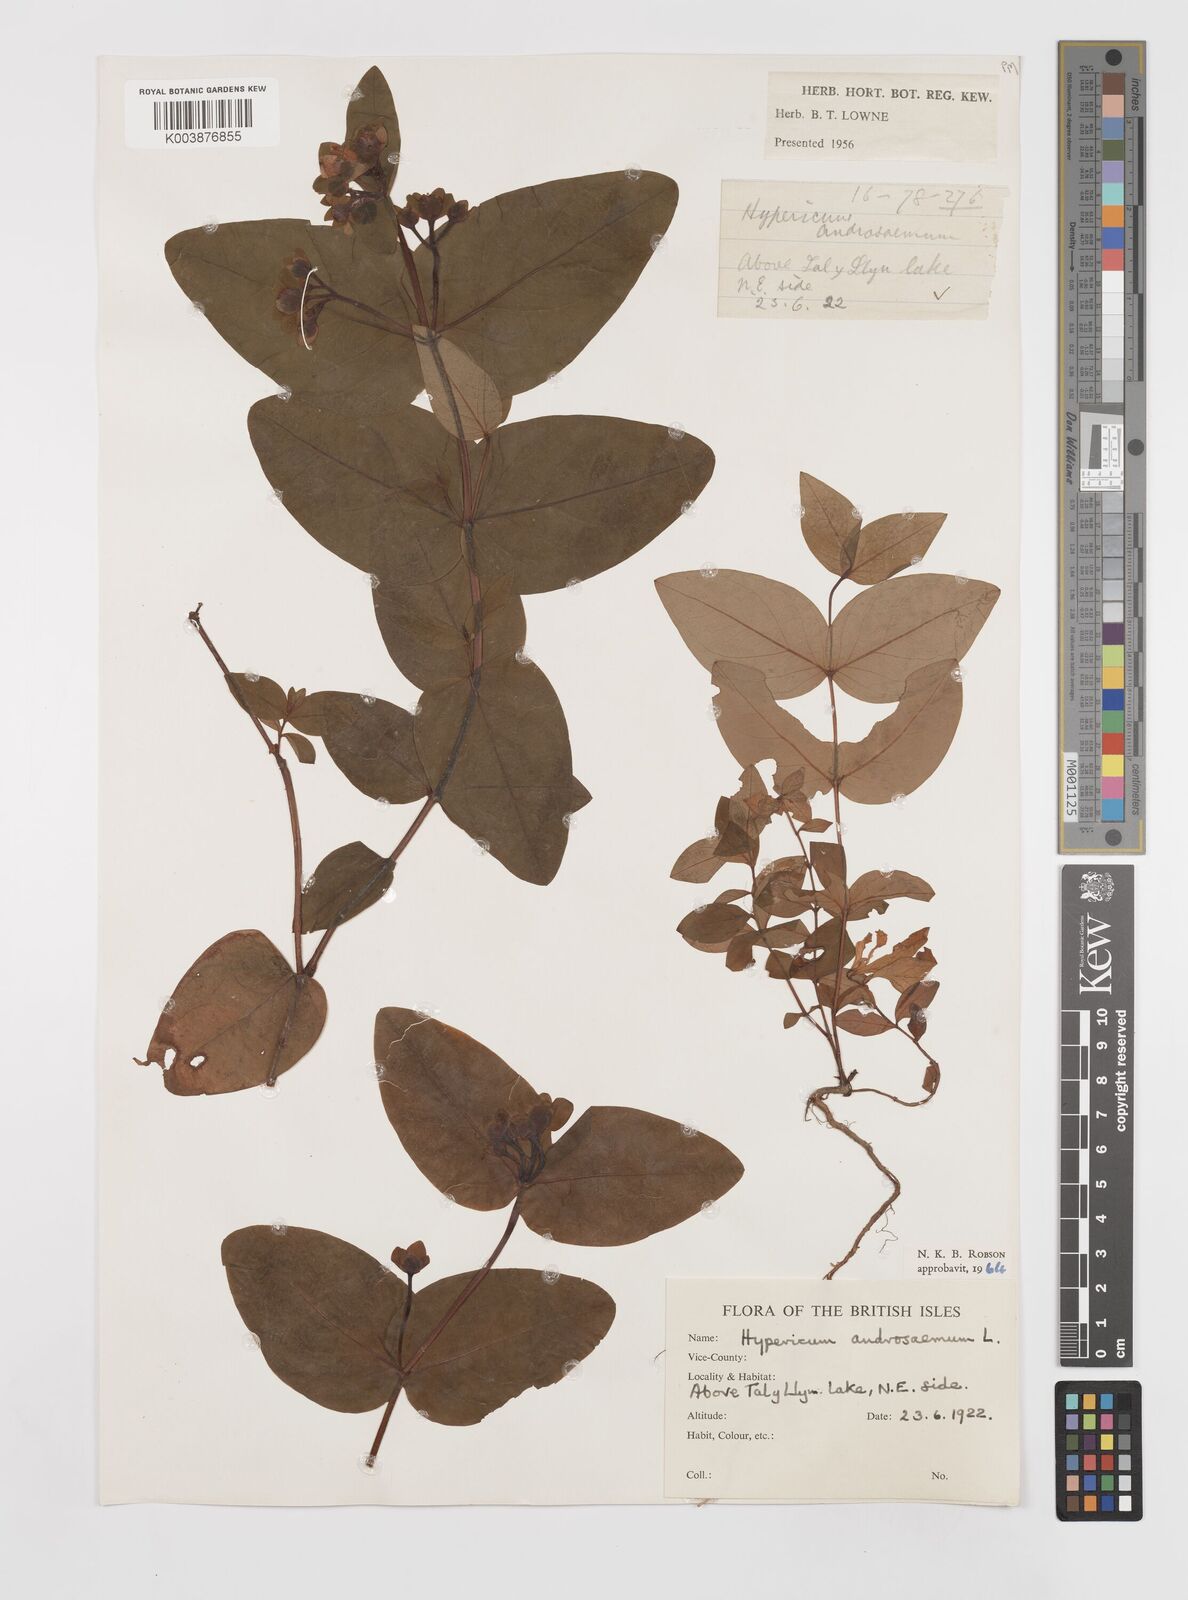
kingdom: Plantae
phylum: Tracheophyta
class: Magnoliopsida
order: Malpighiales
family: Hypericaceae
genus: Hypericum
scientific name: Hypericum androsaemum
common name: Sweet-amber
